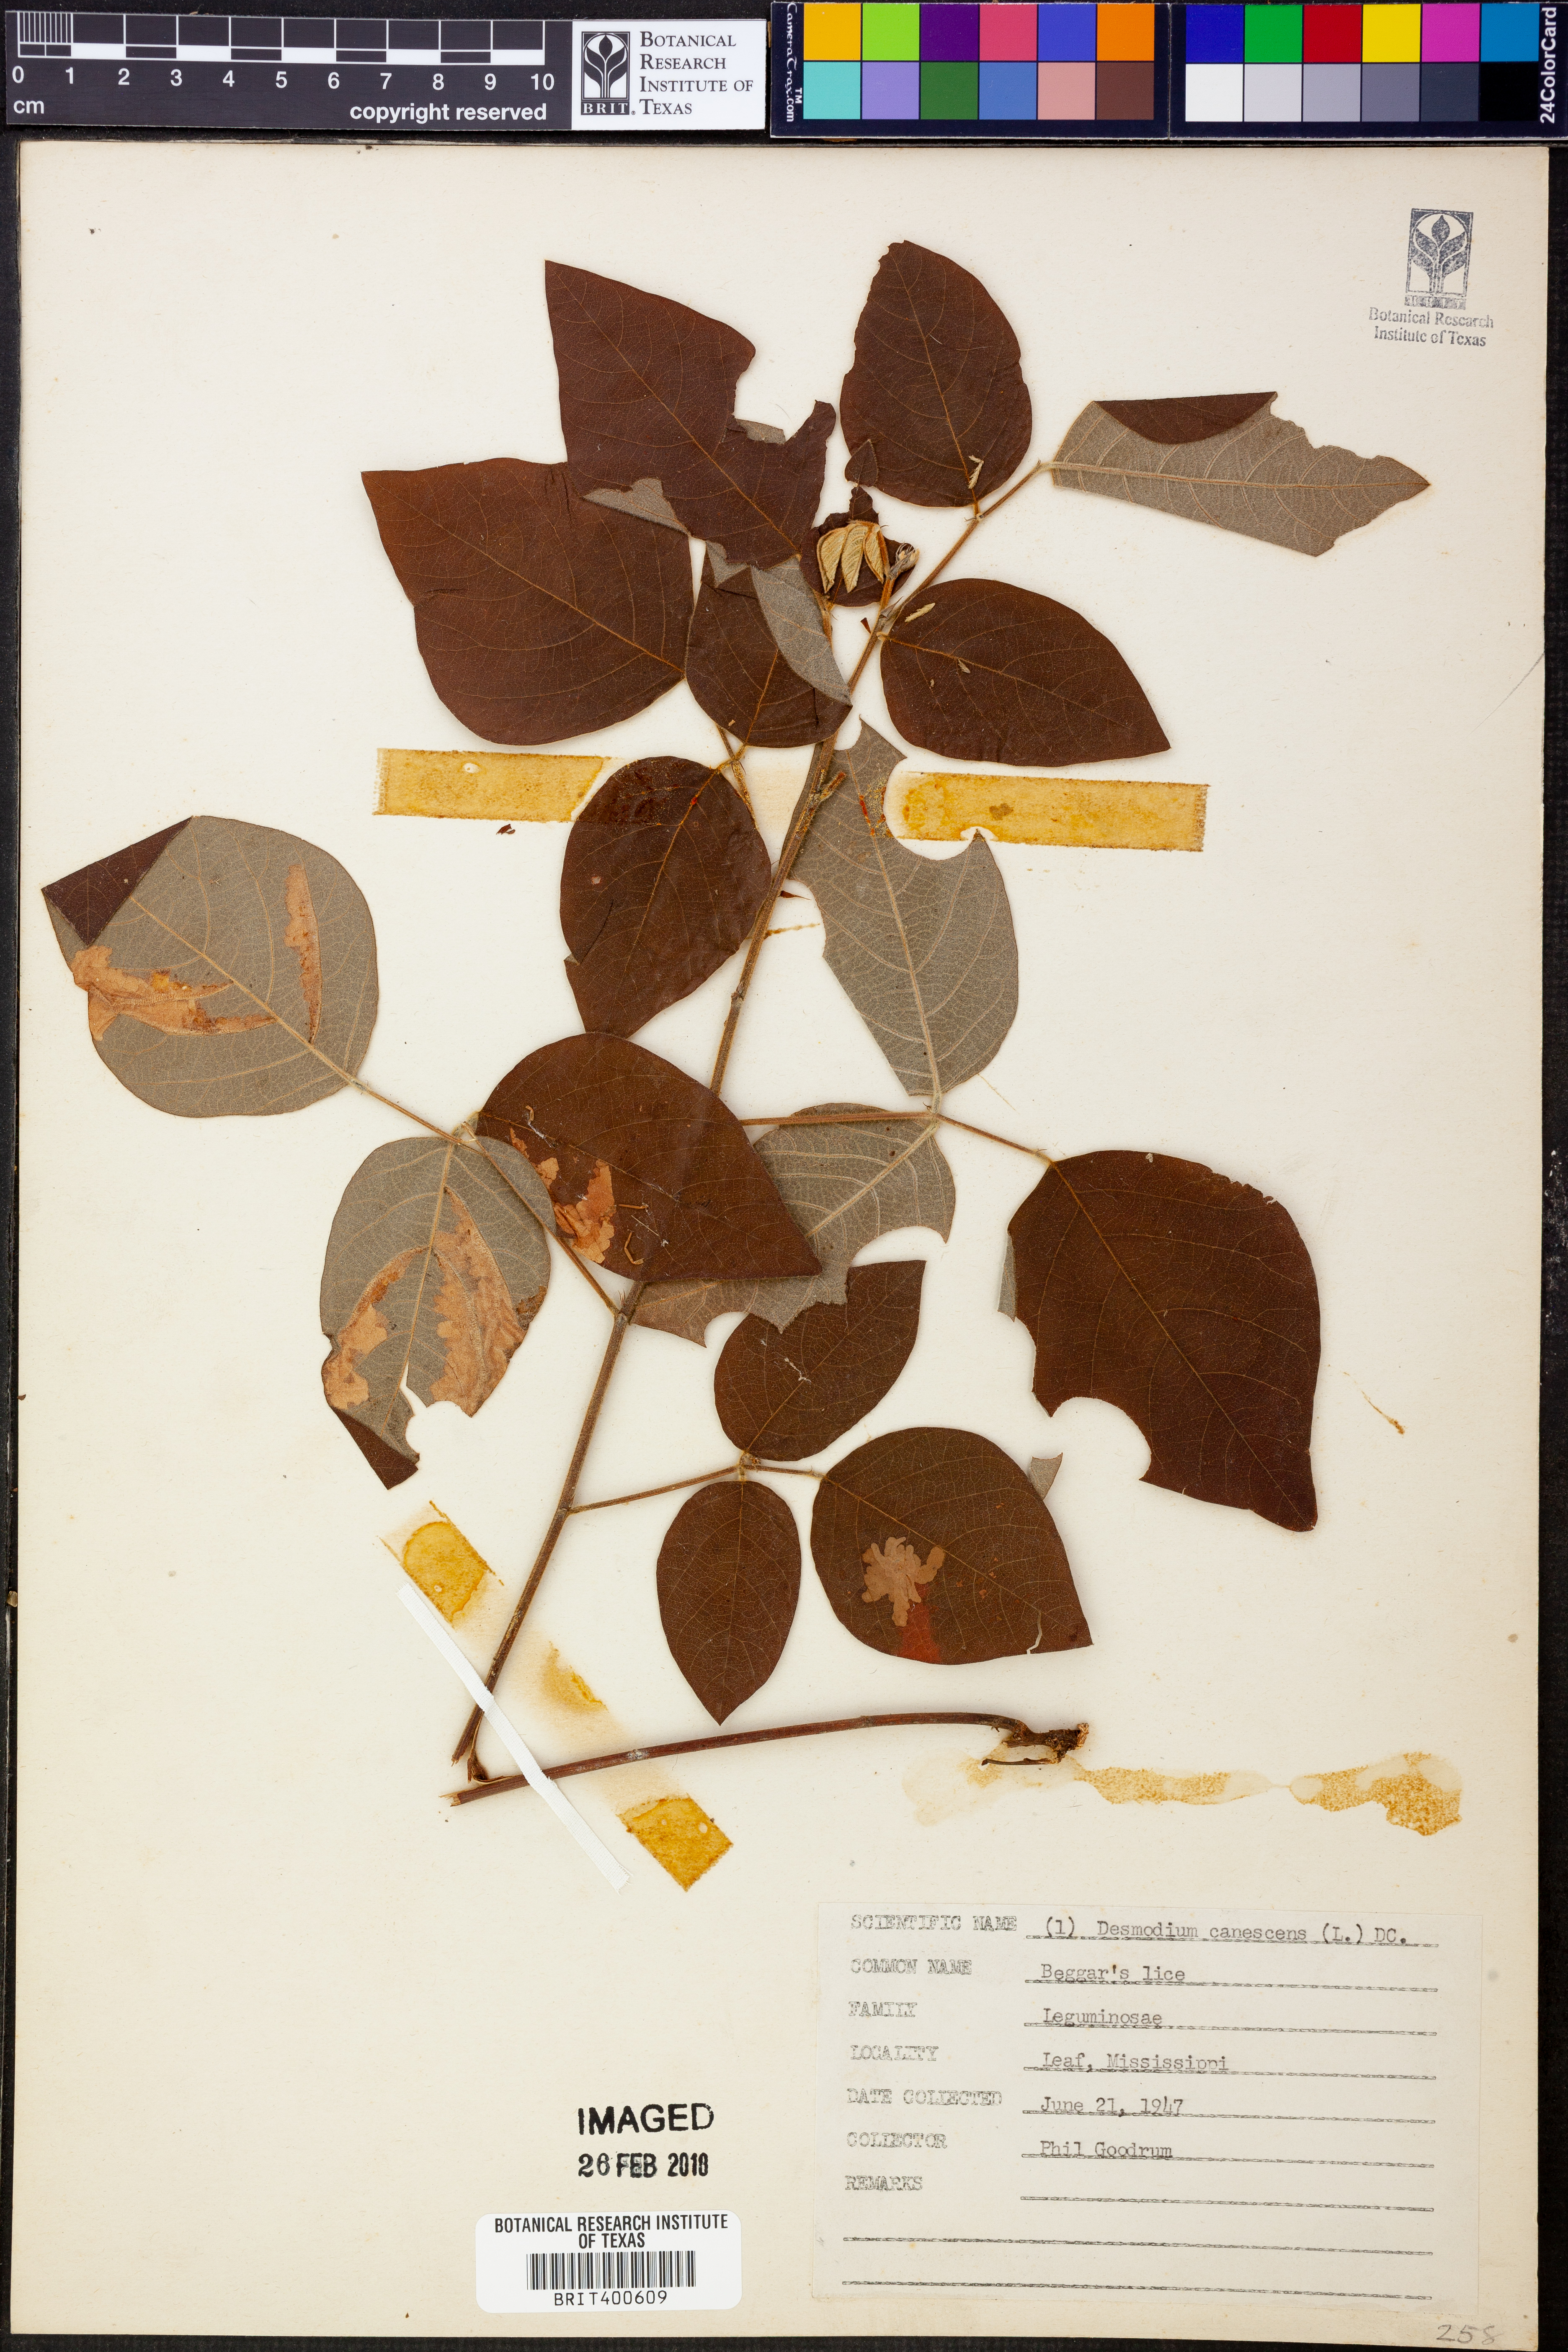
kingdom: Plantae
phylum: Tracheophyta
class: Magnoliopsida
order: Fabales
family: Fabaceae
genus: Desmodium
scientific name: Desmodium canescens
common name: Hoary tick-clover
